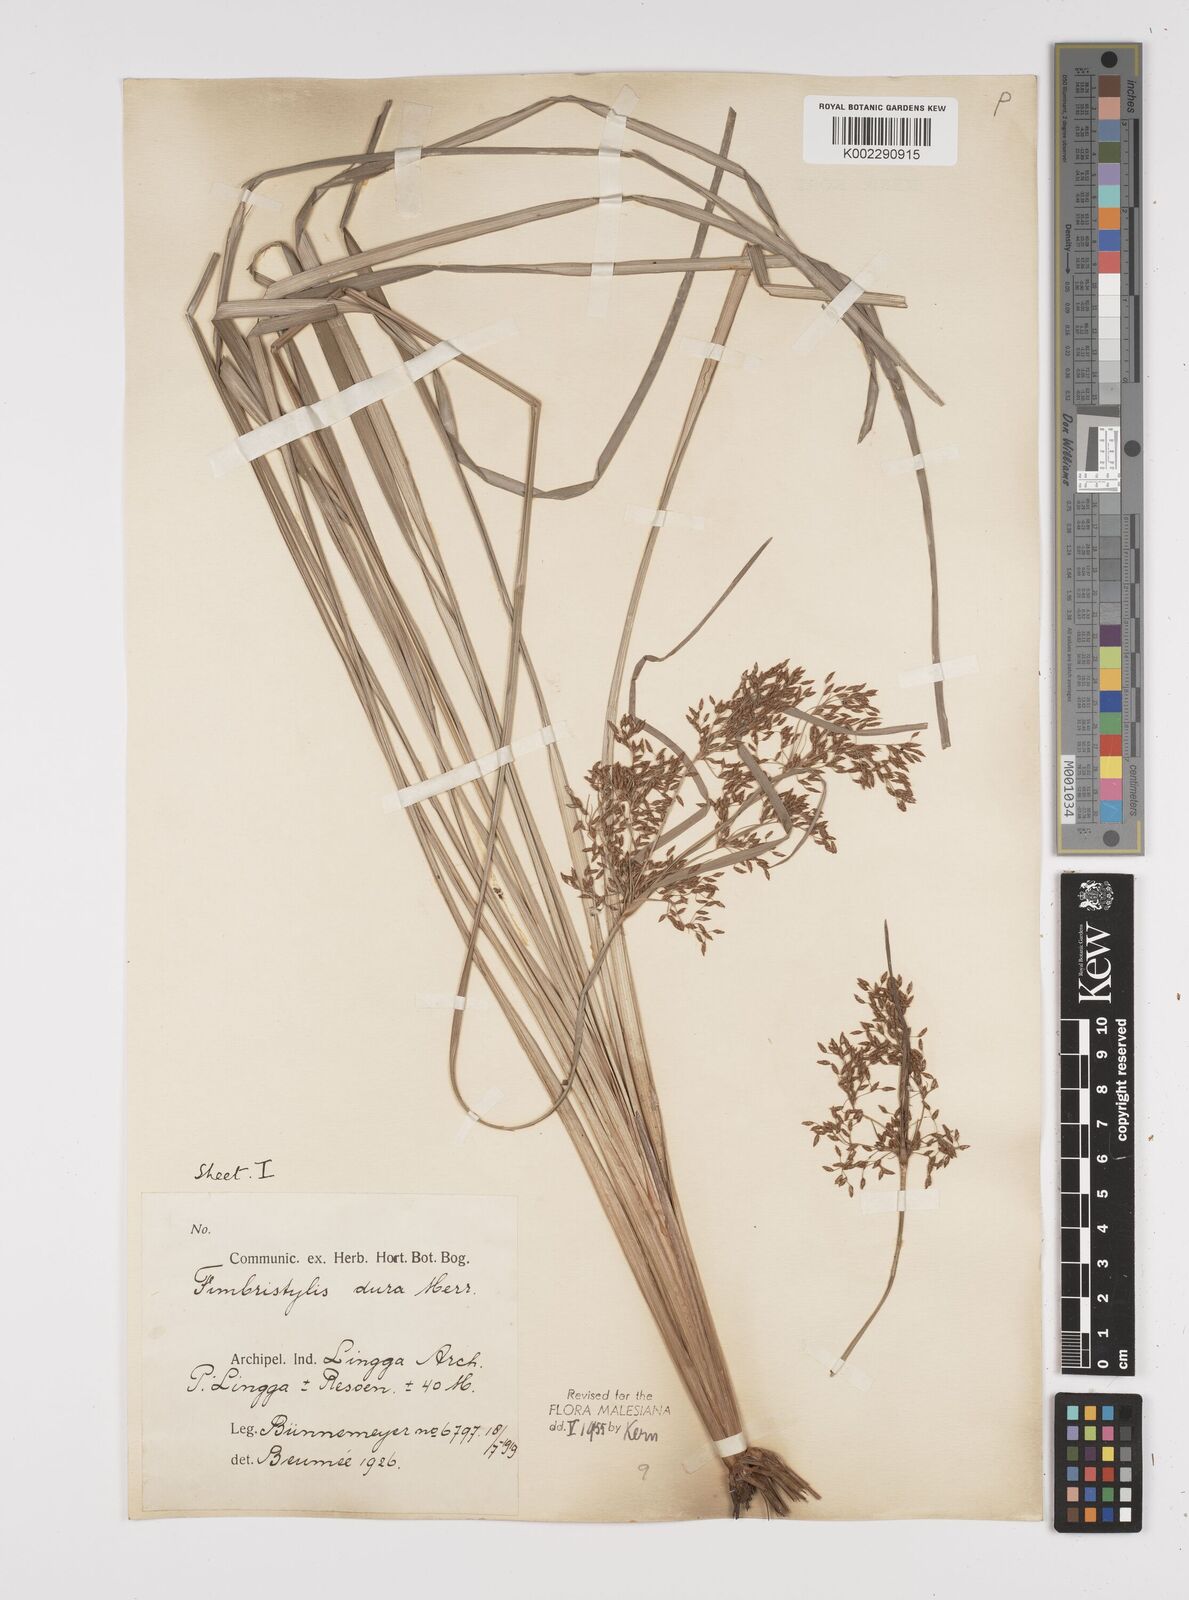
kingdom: Plantae
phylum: Tracheophyta
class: Liliopsida
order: Poales
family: Cyperaceae
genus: Fimbristylis
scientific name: Fimbristylis dura
